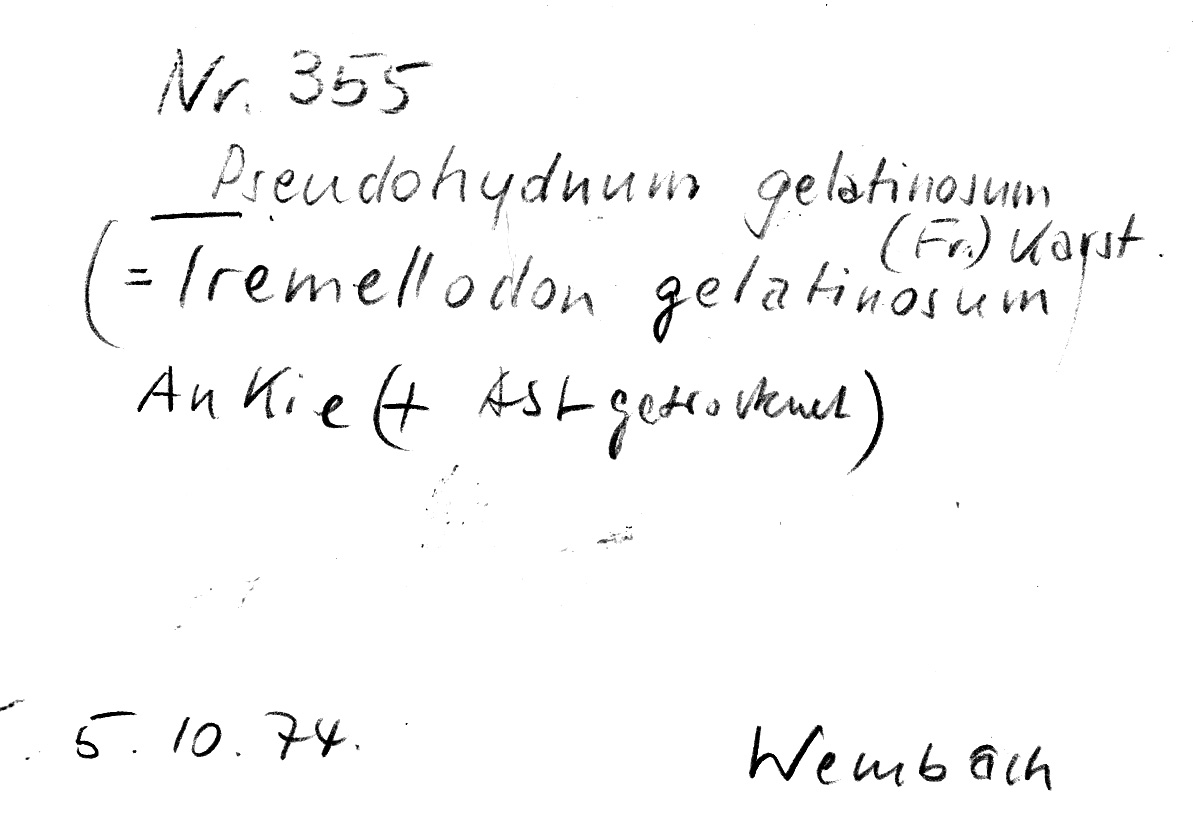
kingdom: Plantae
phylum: Tracheophyta
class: Pinopsida
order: Pinales
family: Pinaceae
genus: Pinus
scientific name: Pinus
